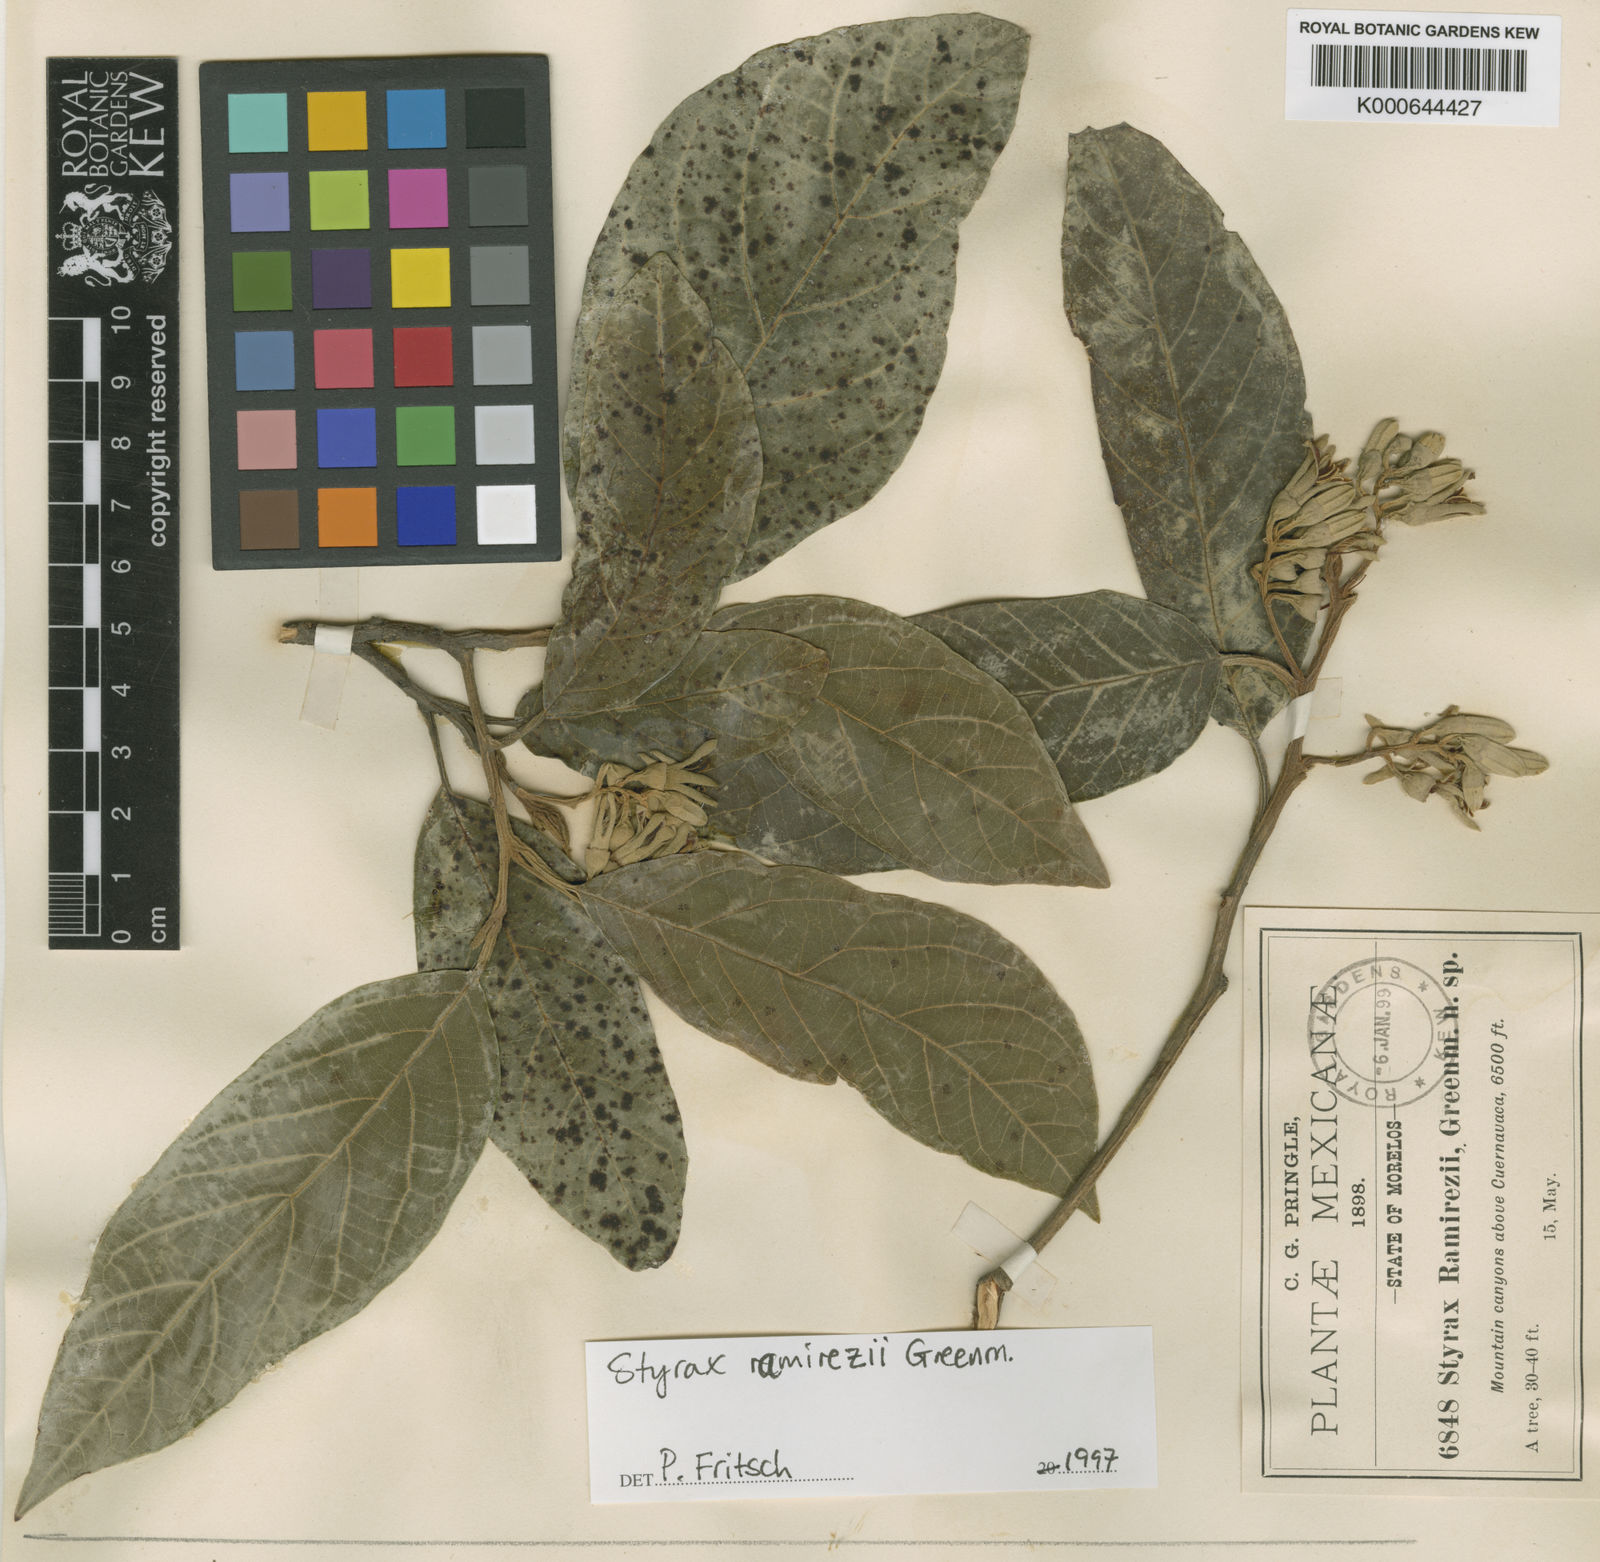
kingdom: Plantae
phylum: Tracheophyta
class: Magnoliopsida
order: Ericales
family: Styracaceae
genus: Styrax
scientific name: Styrax argenteus
